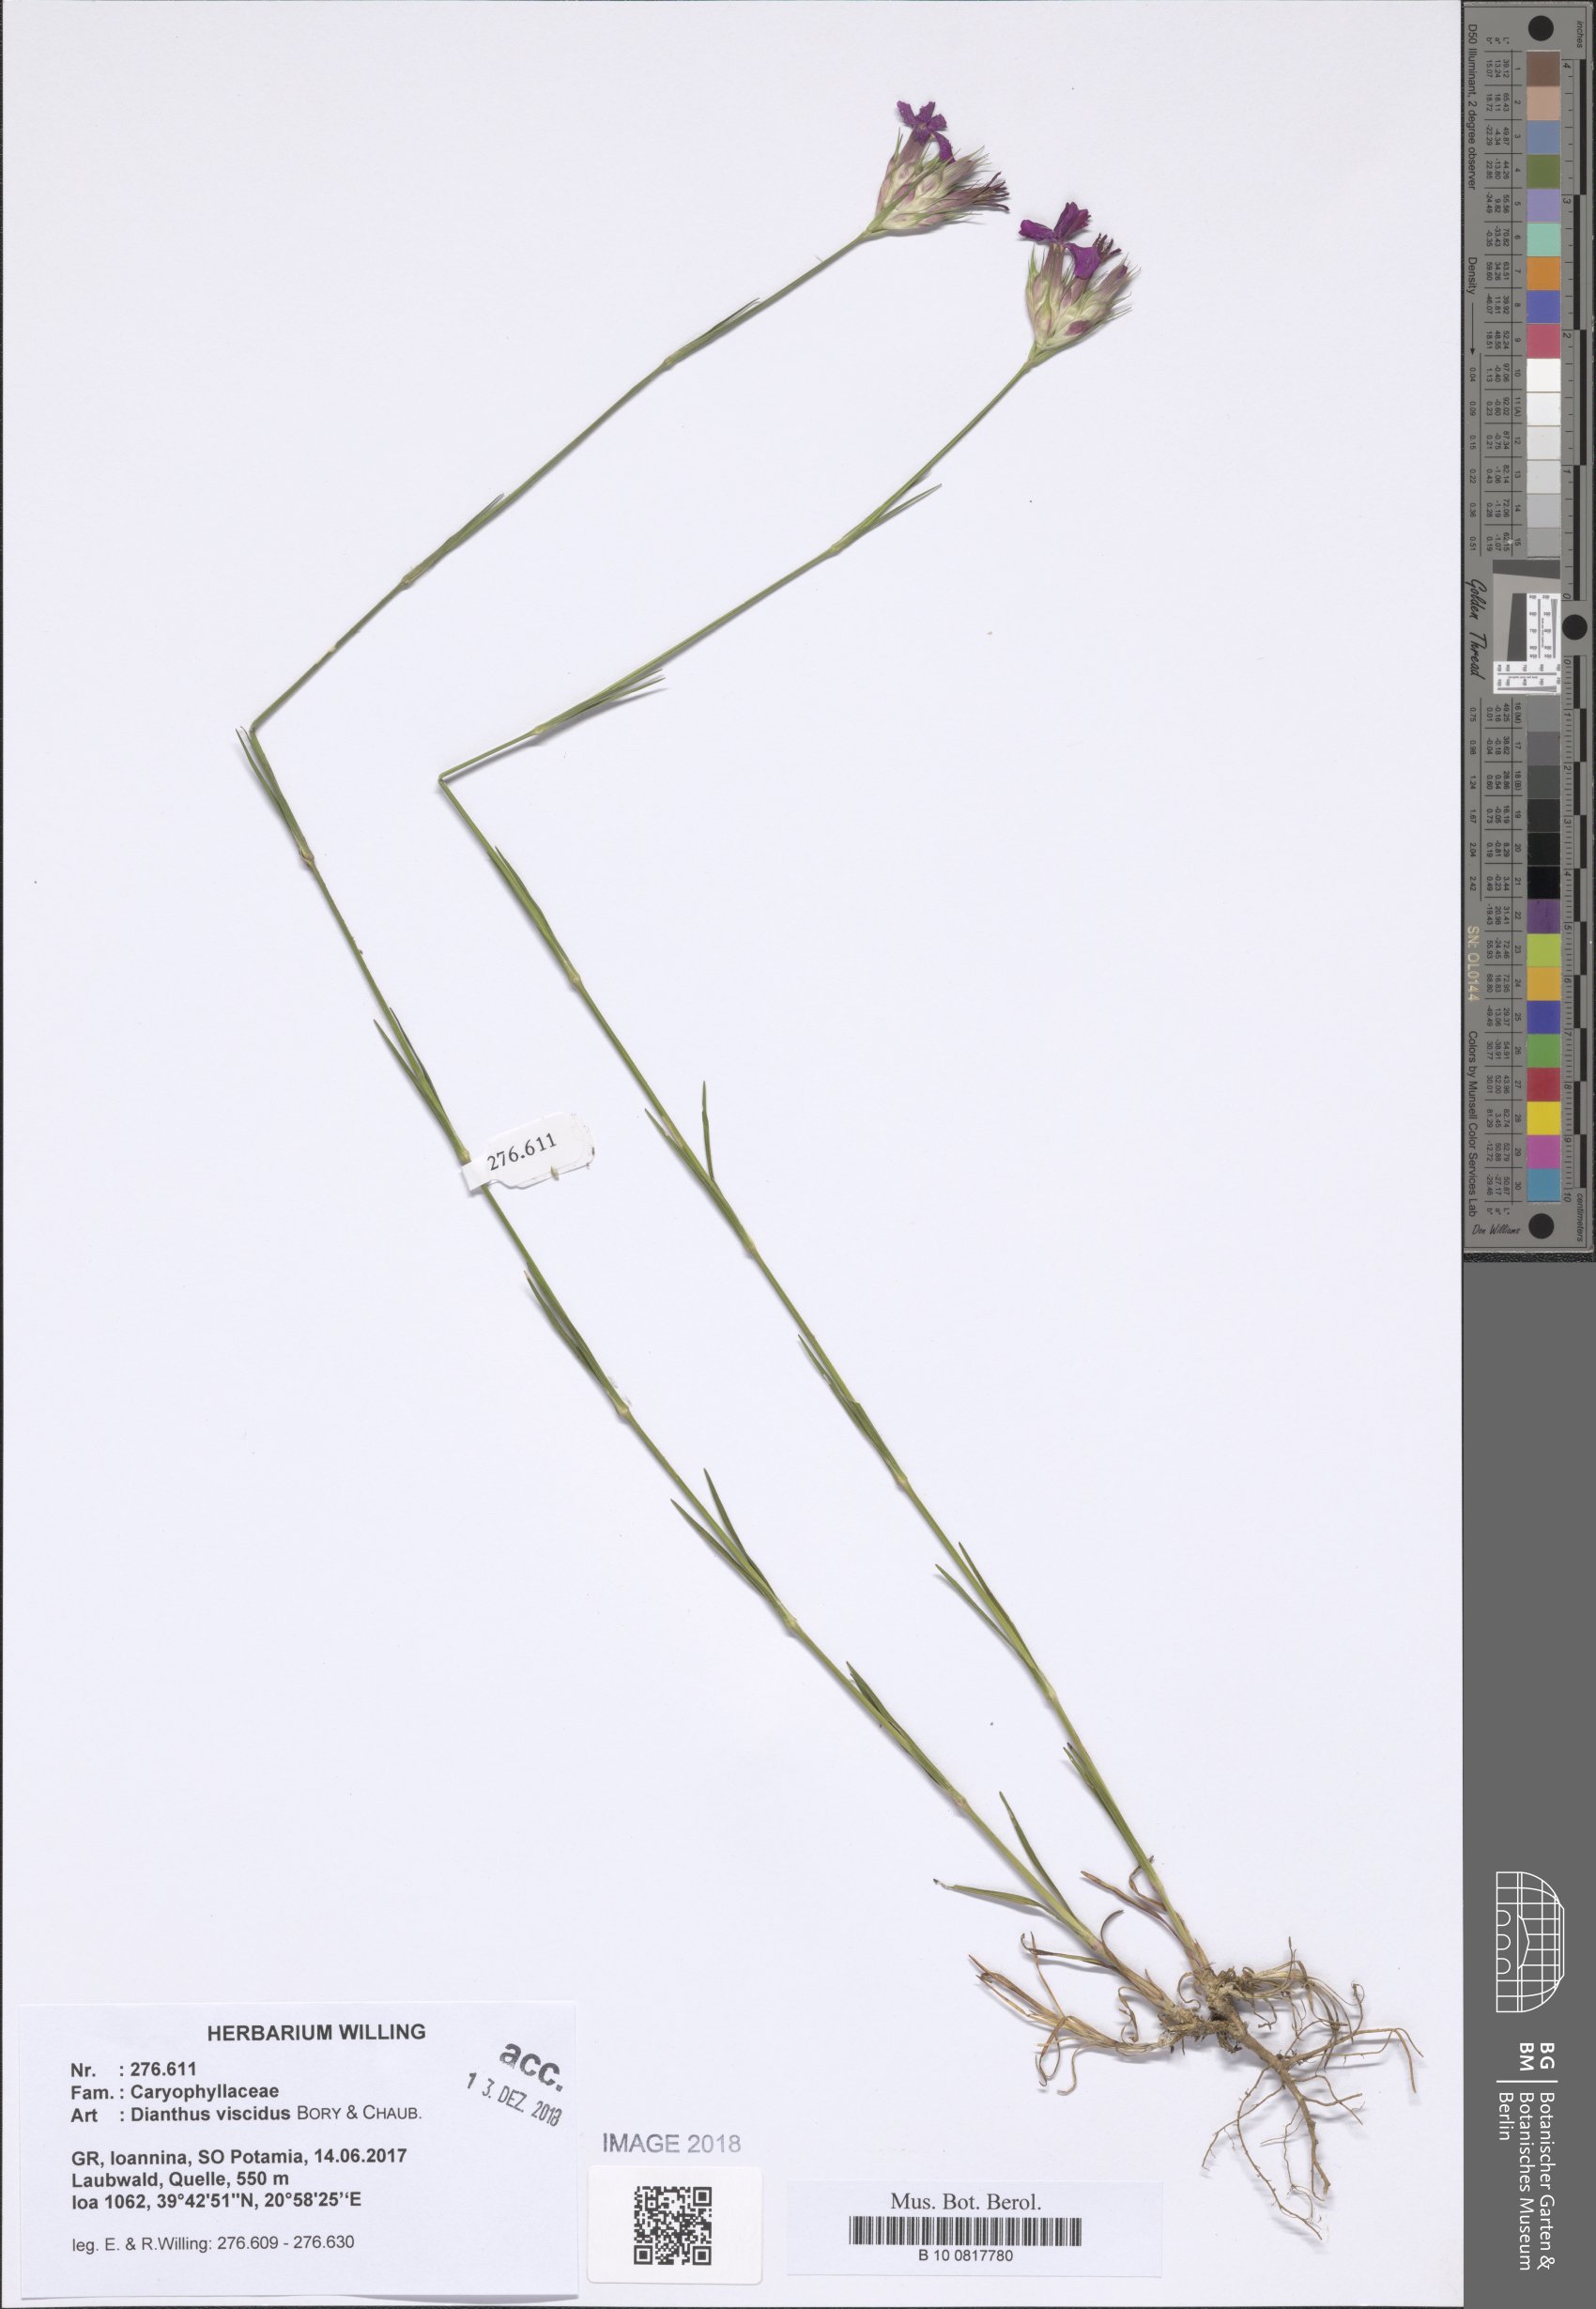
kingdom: Plantae
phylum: Tracheophyta
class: Magnoliopsida
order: Caryophyllales
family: Caryophyllaceae
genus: Dianthus
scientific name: Dianthus viscidus
